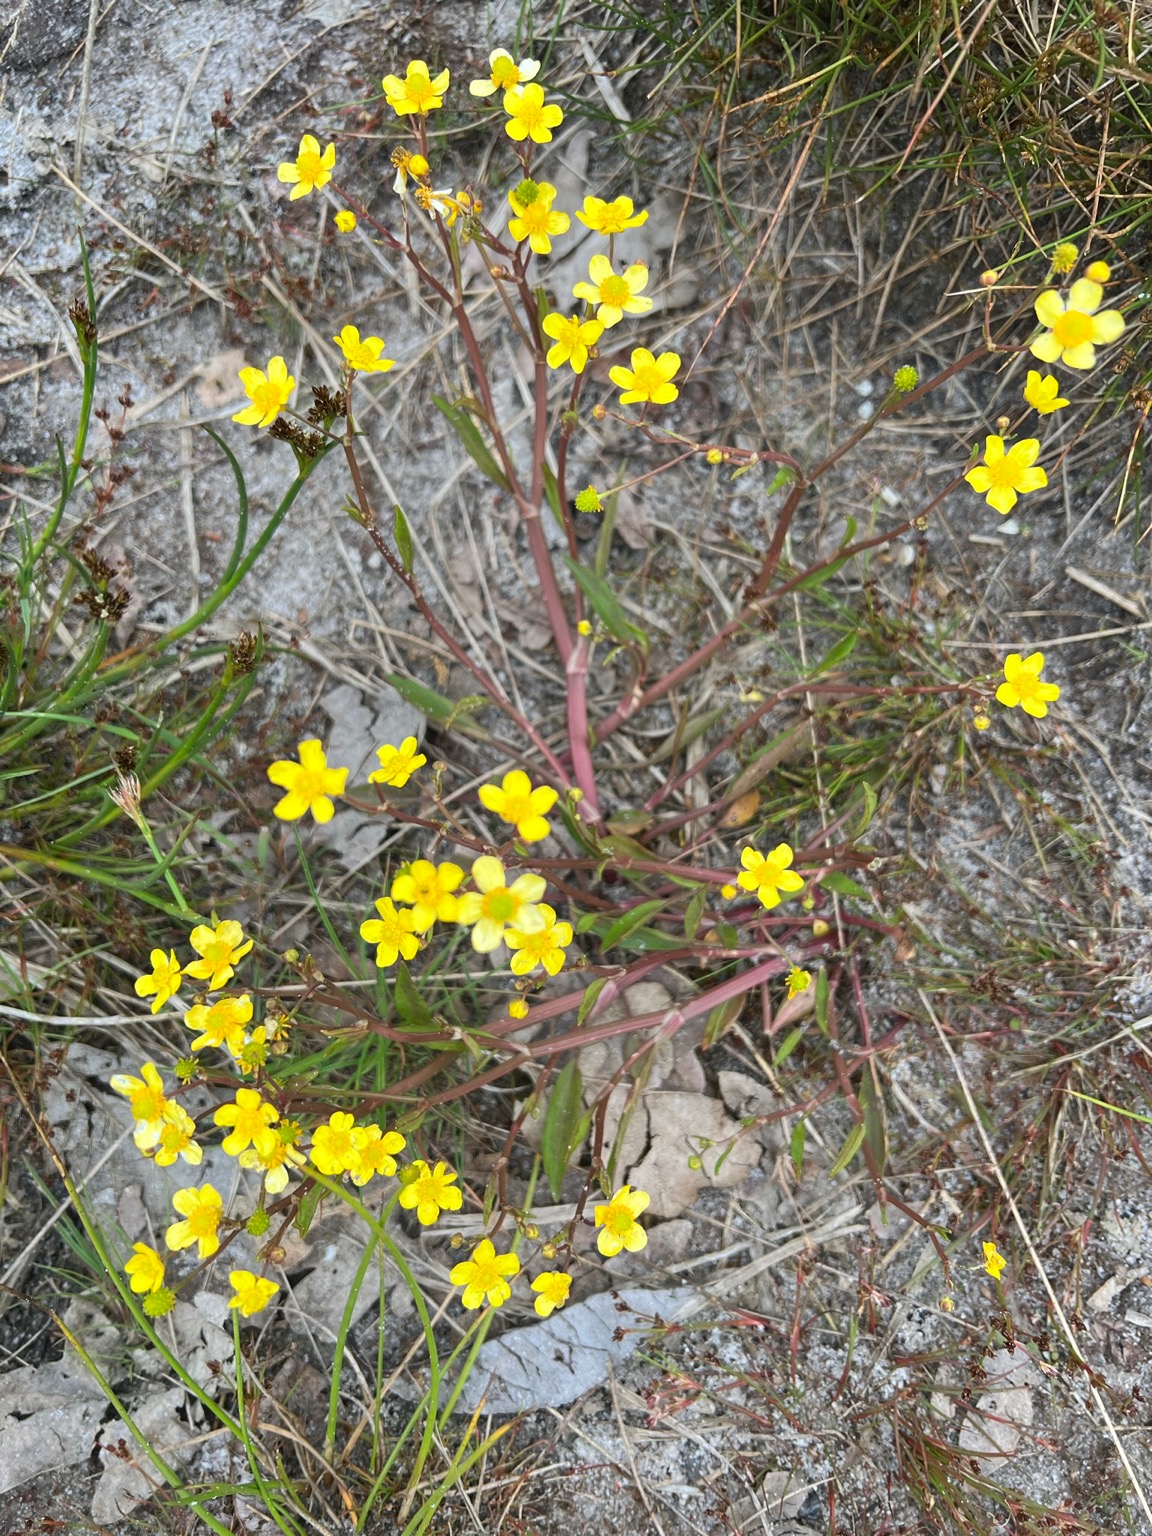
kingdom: Plantae
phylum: Tracheophyta
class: Magnoliopsida
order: Ranunculales
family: Ranunculaceae
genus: Ranunculus
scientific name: Ranunculus flammula
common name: Kær-ranunkel
